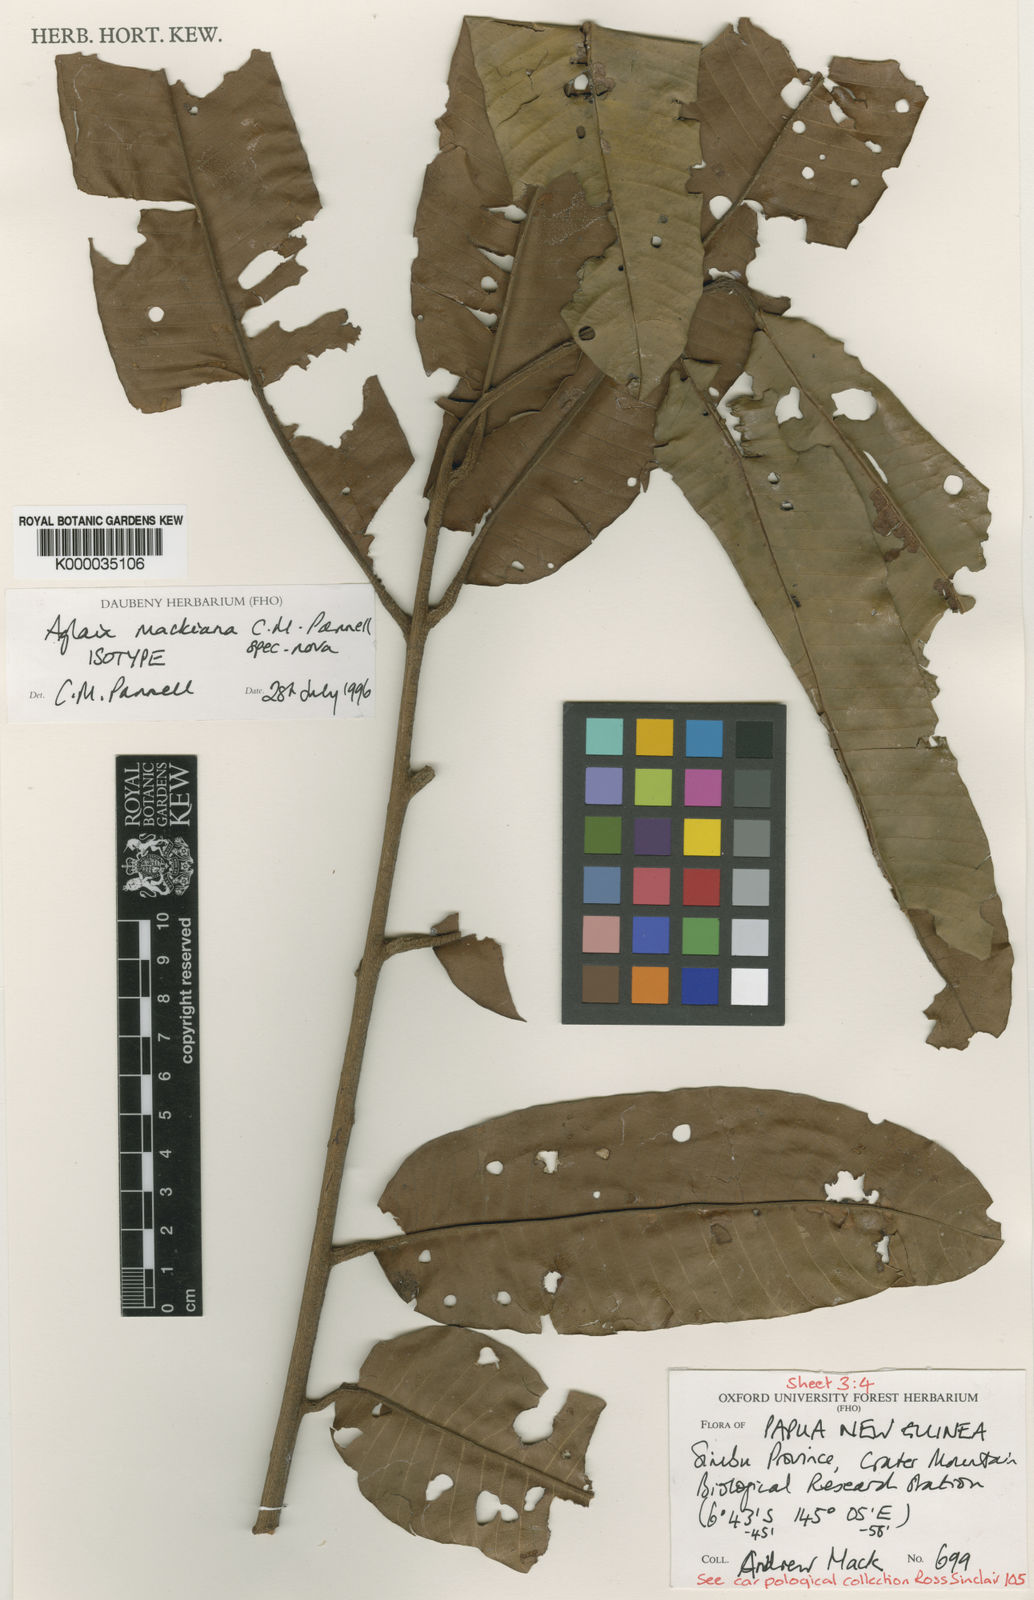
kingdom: Plantae
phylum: Tracheophyta
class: Magnoliopsida
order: Sapindales
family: Meliaceae
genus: Aglaia
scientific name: Aglaia mackiana
